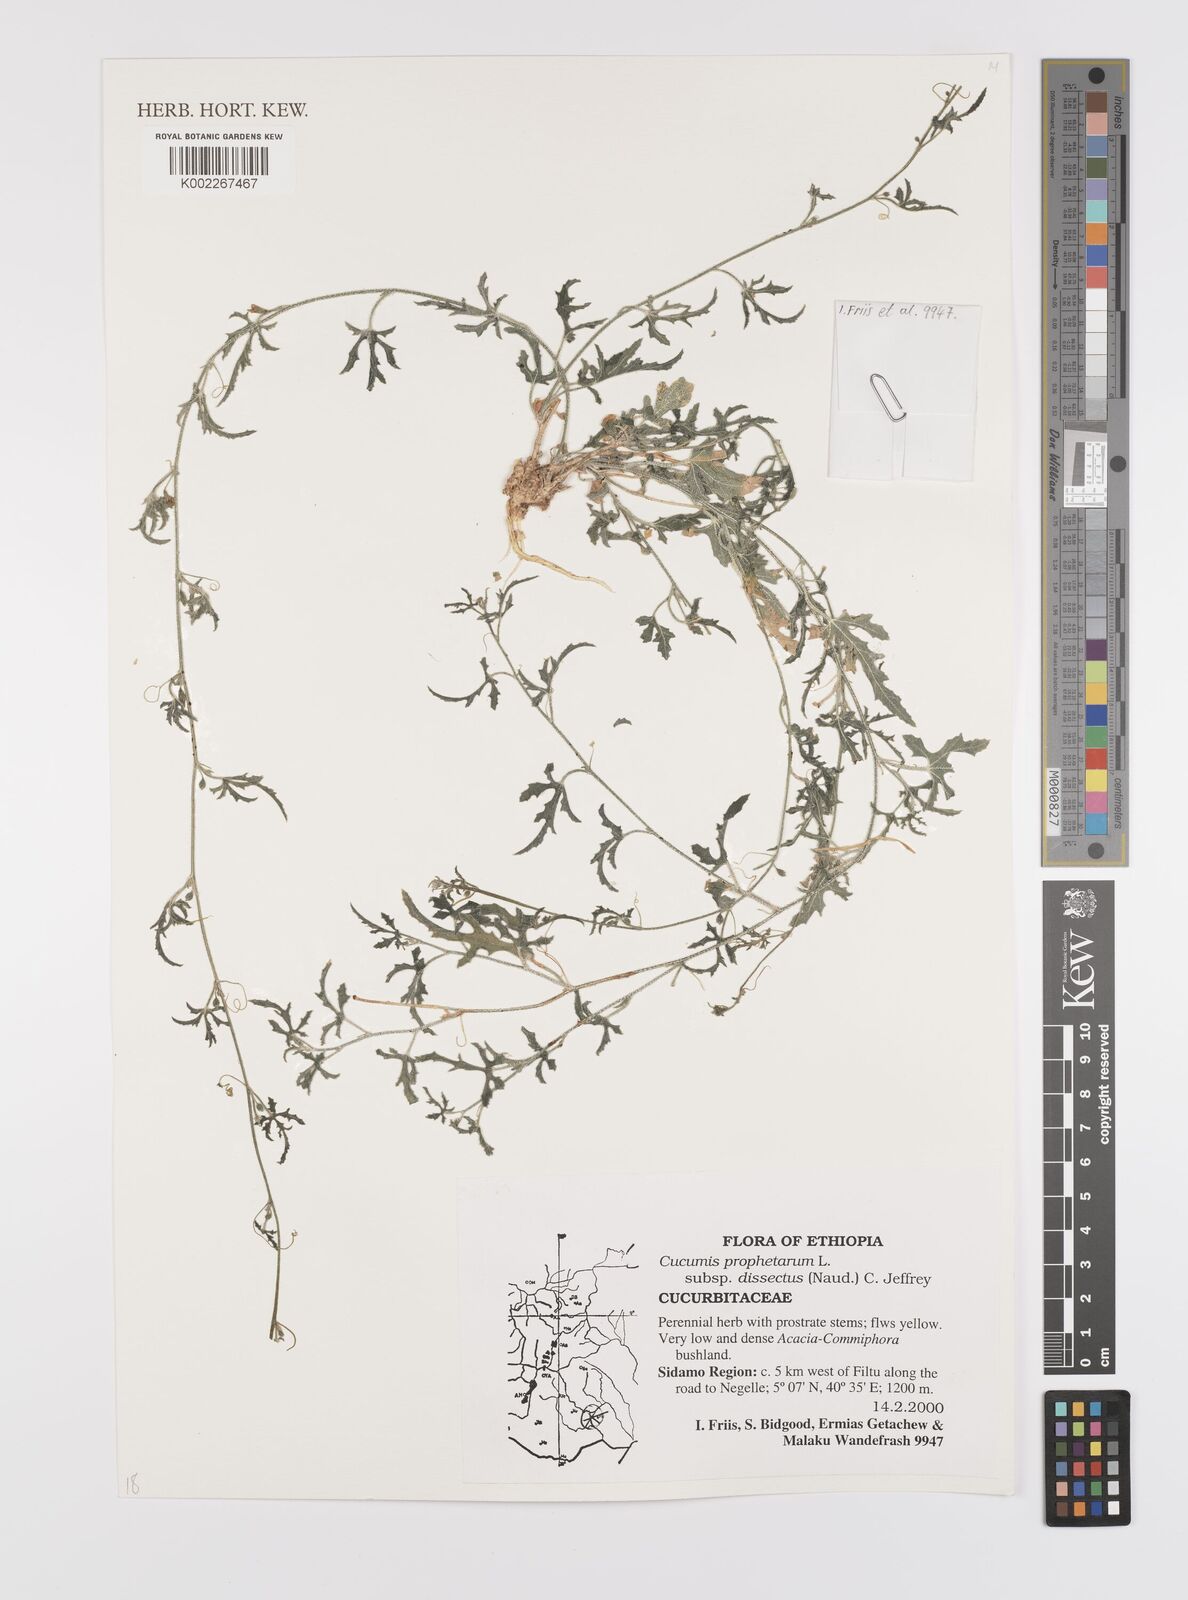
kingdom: Plantae
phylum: Tracheophyta
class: Magnoliopsida
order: Cucurbitales
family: Cucurbitaceae
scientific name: Cucurbitaceae
